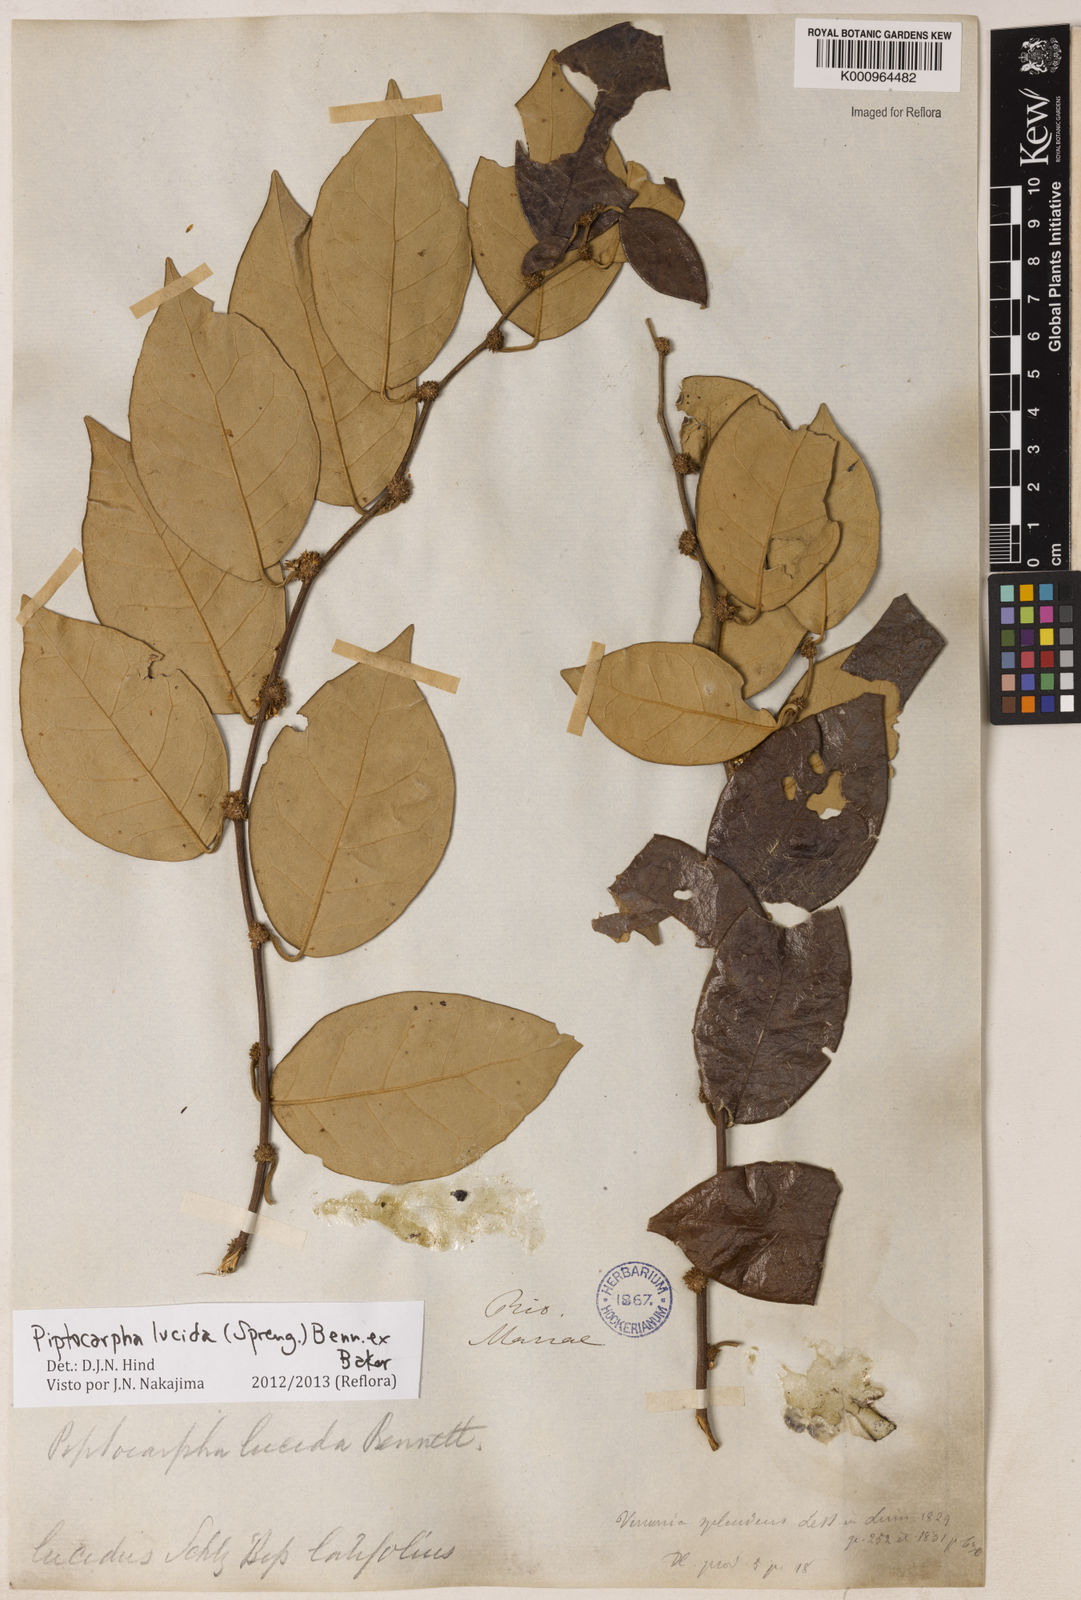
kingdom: Plantae
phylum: Tracheophyta
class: Magnoliopsida
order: Asterales
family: Asteraceae
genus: Piptocarpha
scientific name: Piptocarpha lucida
